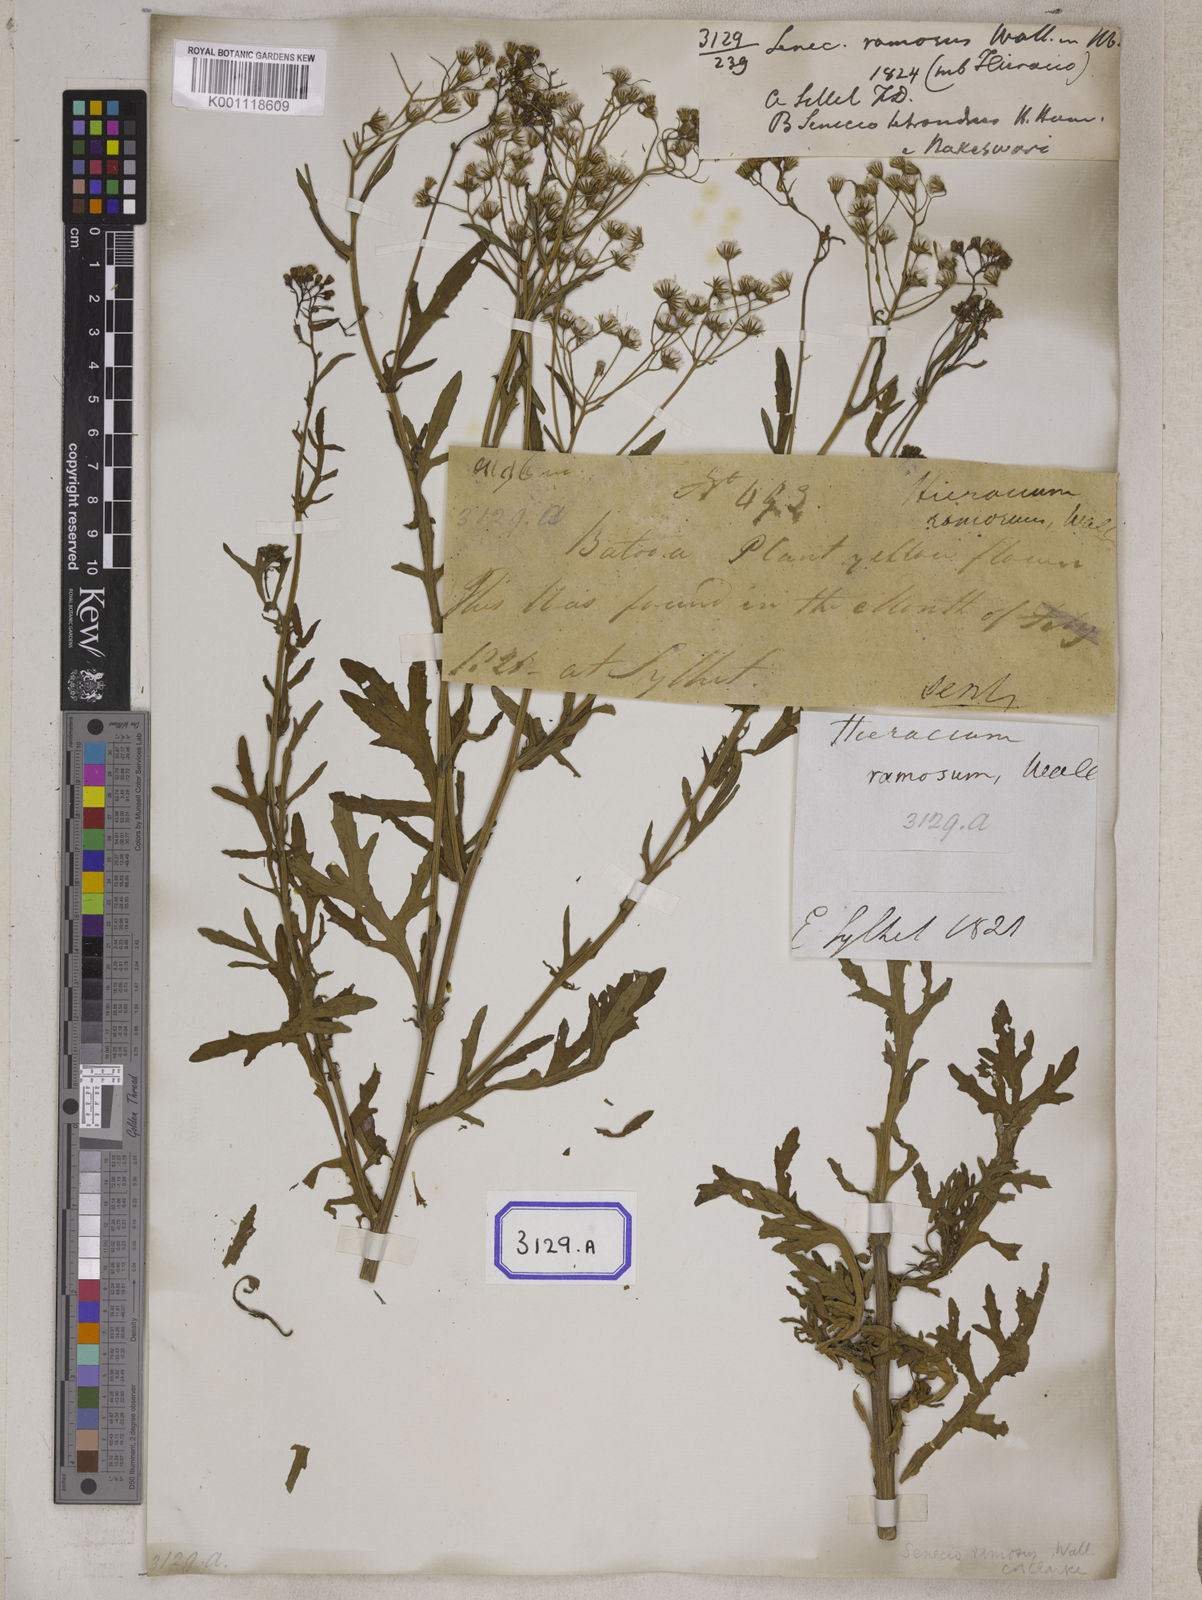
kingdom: Plantae
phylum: Tracheophyta
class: Magnoliopsida
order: Asterales
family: Asteraceae
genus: Senecio
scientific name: Senecio ramosus
